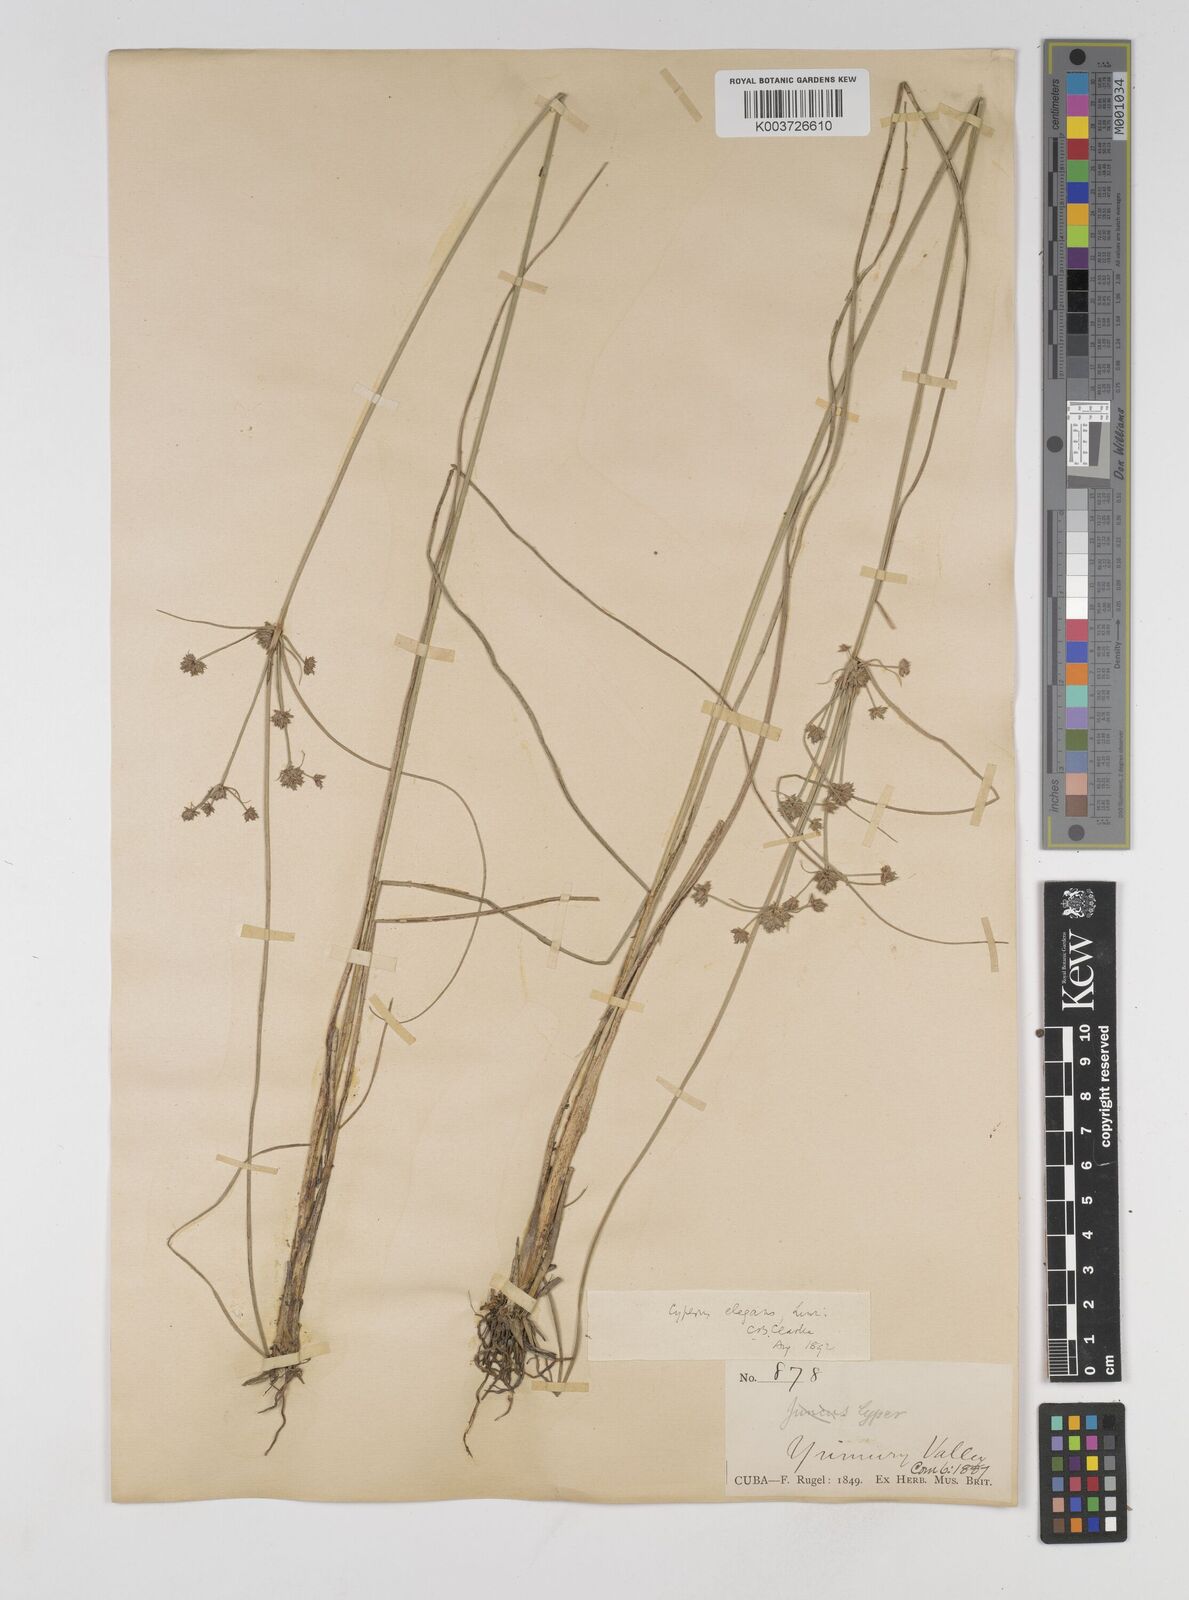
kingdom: Plantae
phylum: Tracheophyta
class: Liliopsida
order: Poales
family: Cyperaceae
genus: Cyperus
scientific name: Cyperus elegans
